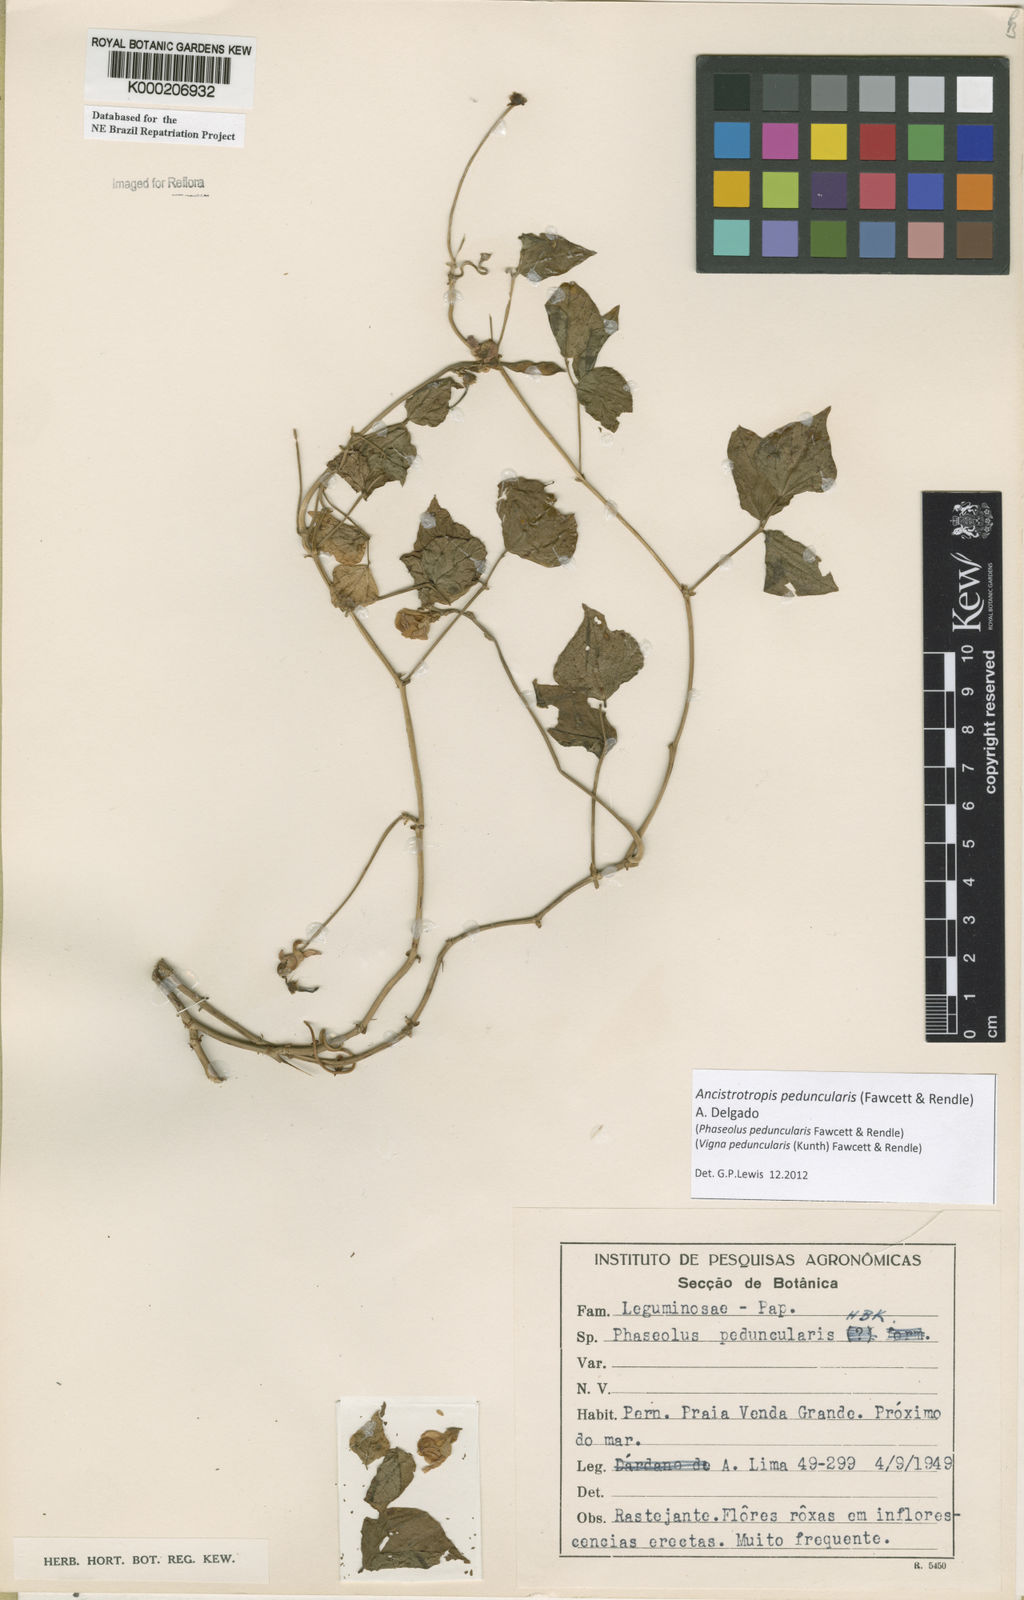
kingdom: Plantae
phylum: Tracheophyta
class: Magnoliopsida
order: Fabales
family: Fabaceae
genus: Ancistrotropis
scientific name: Ancistrotropis peduncularis
